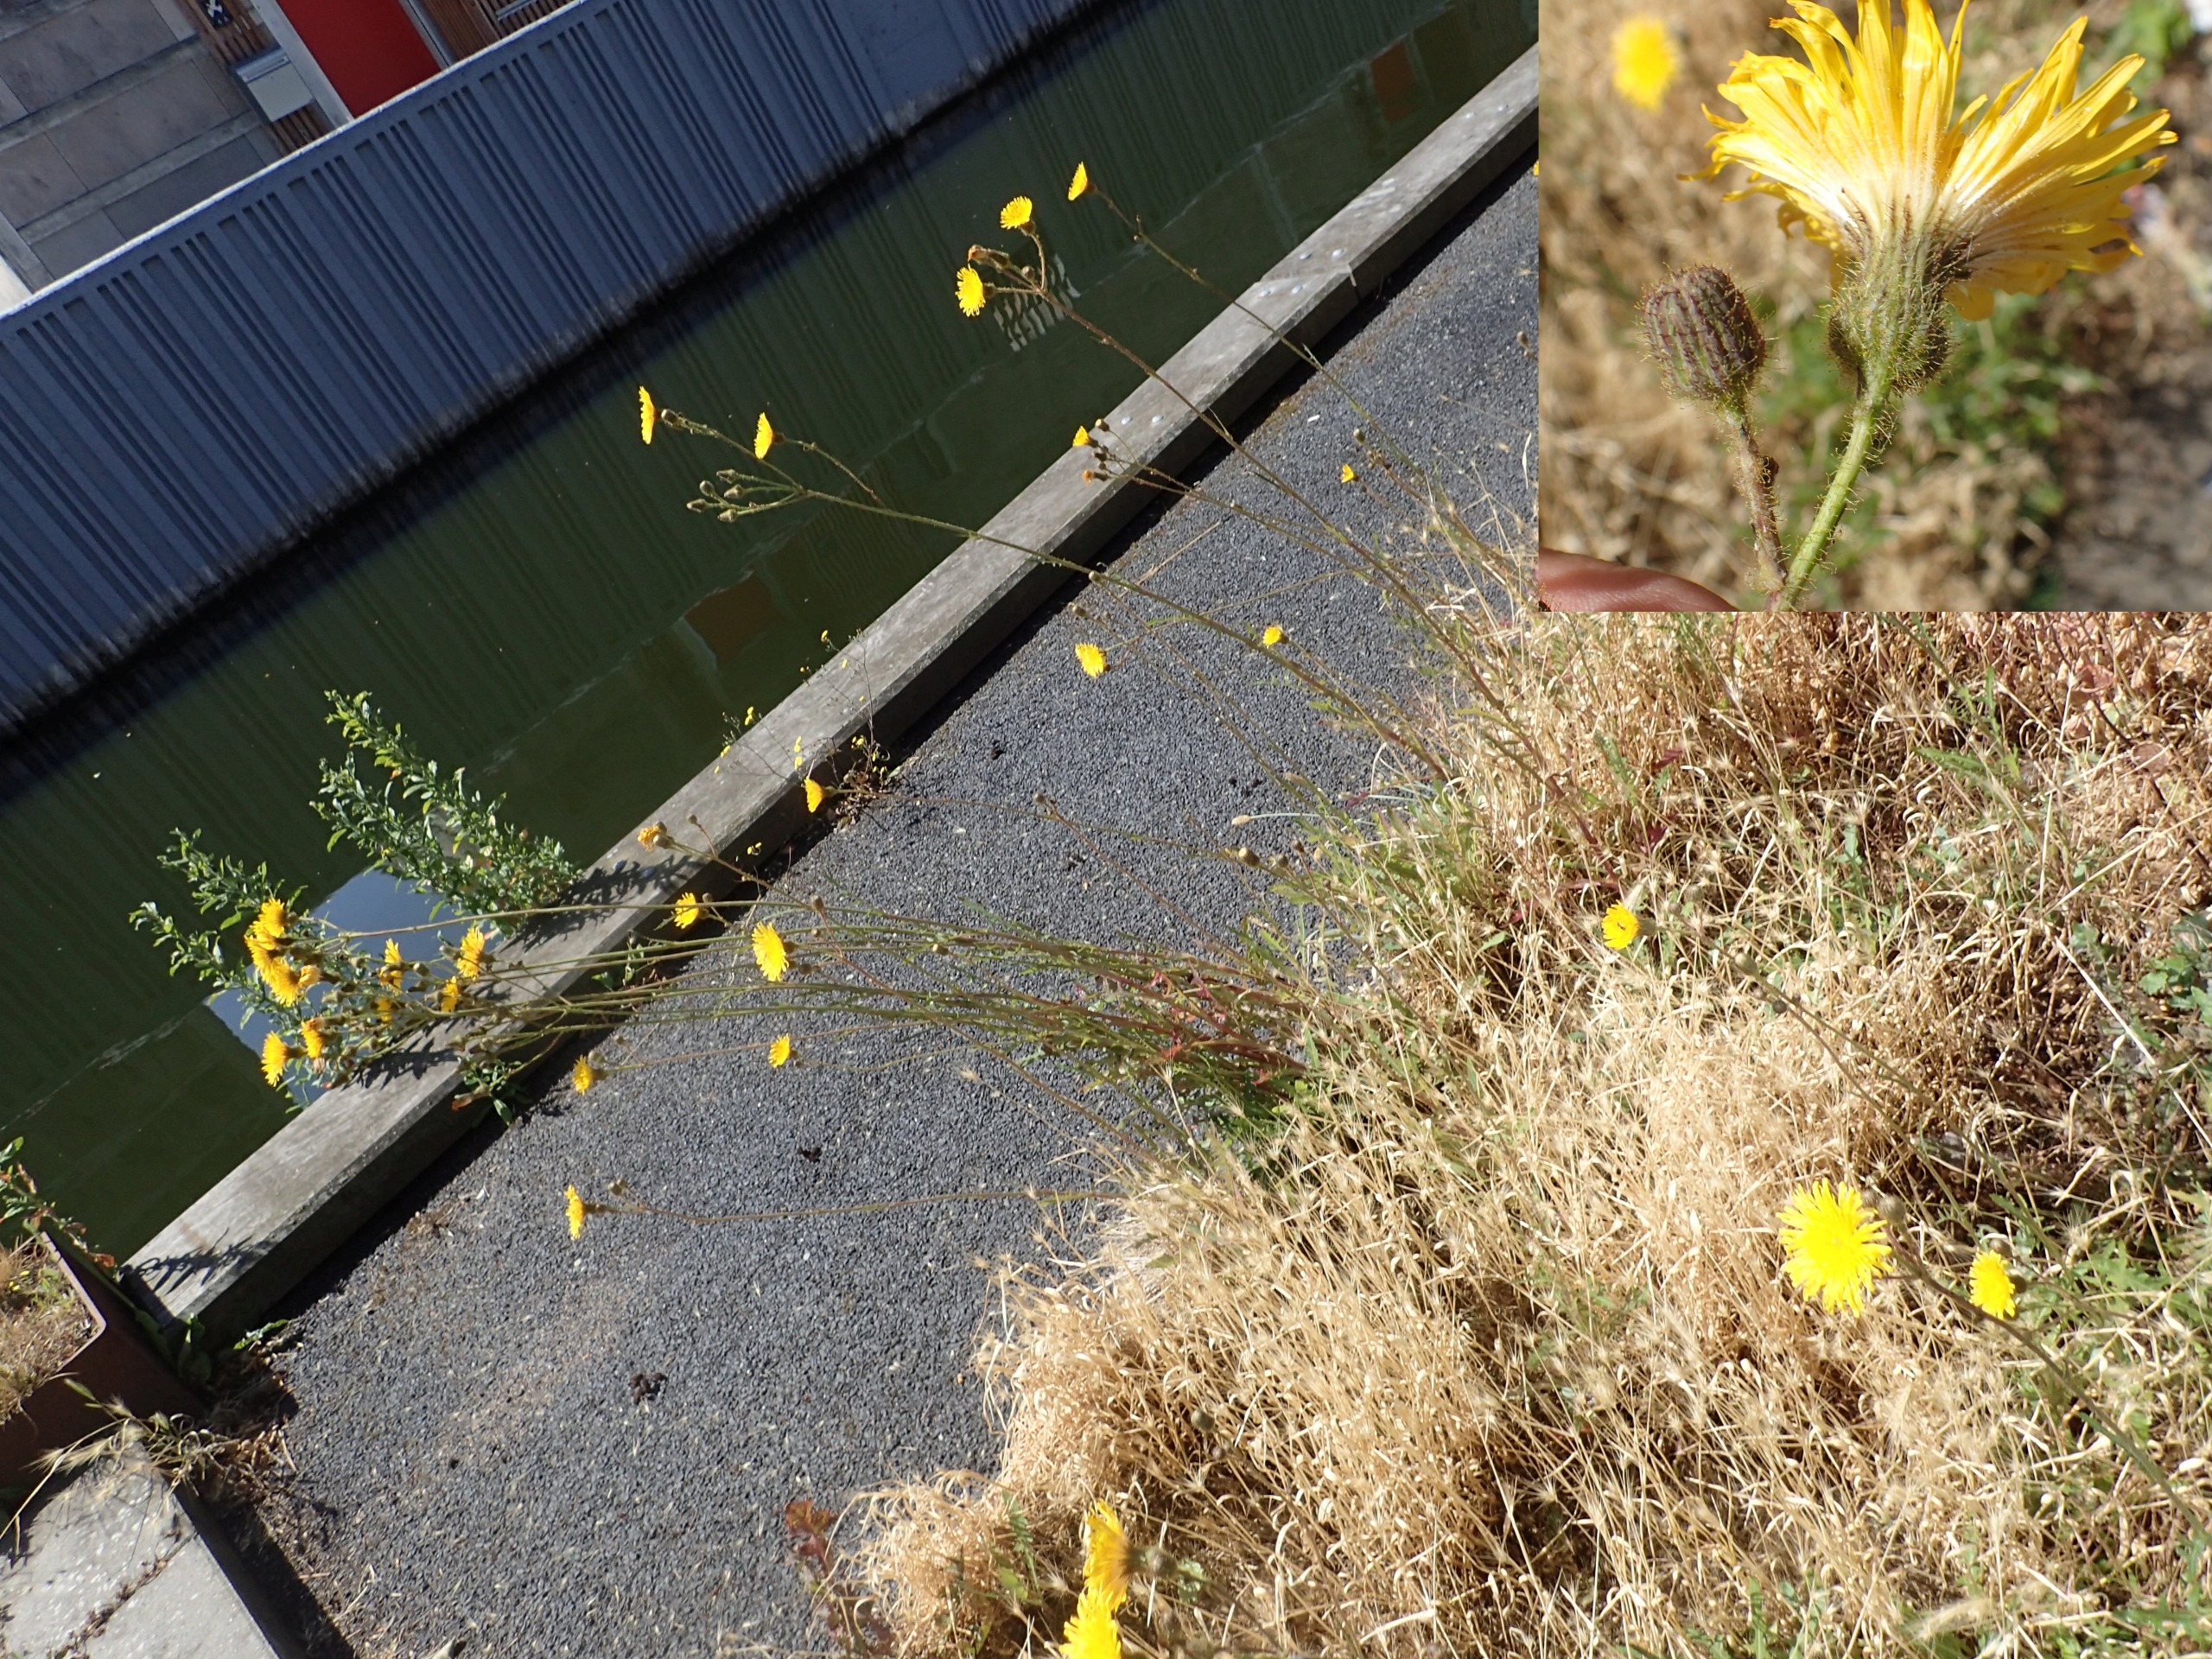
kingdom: Plantae
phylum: Tracheophyta
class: Magnoliopsida
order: Asterales
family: Asteraceae
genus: Sonchus
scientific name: Sonchus arvensis
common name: Ager-svinemælk
